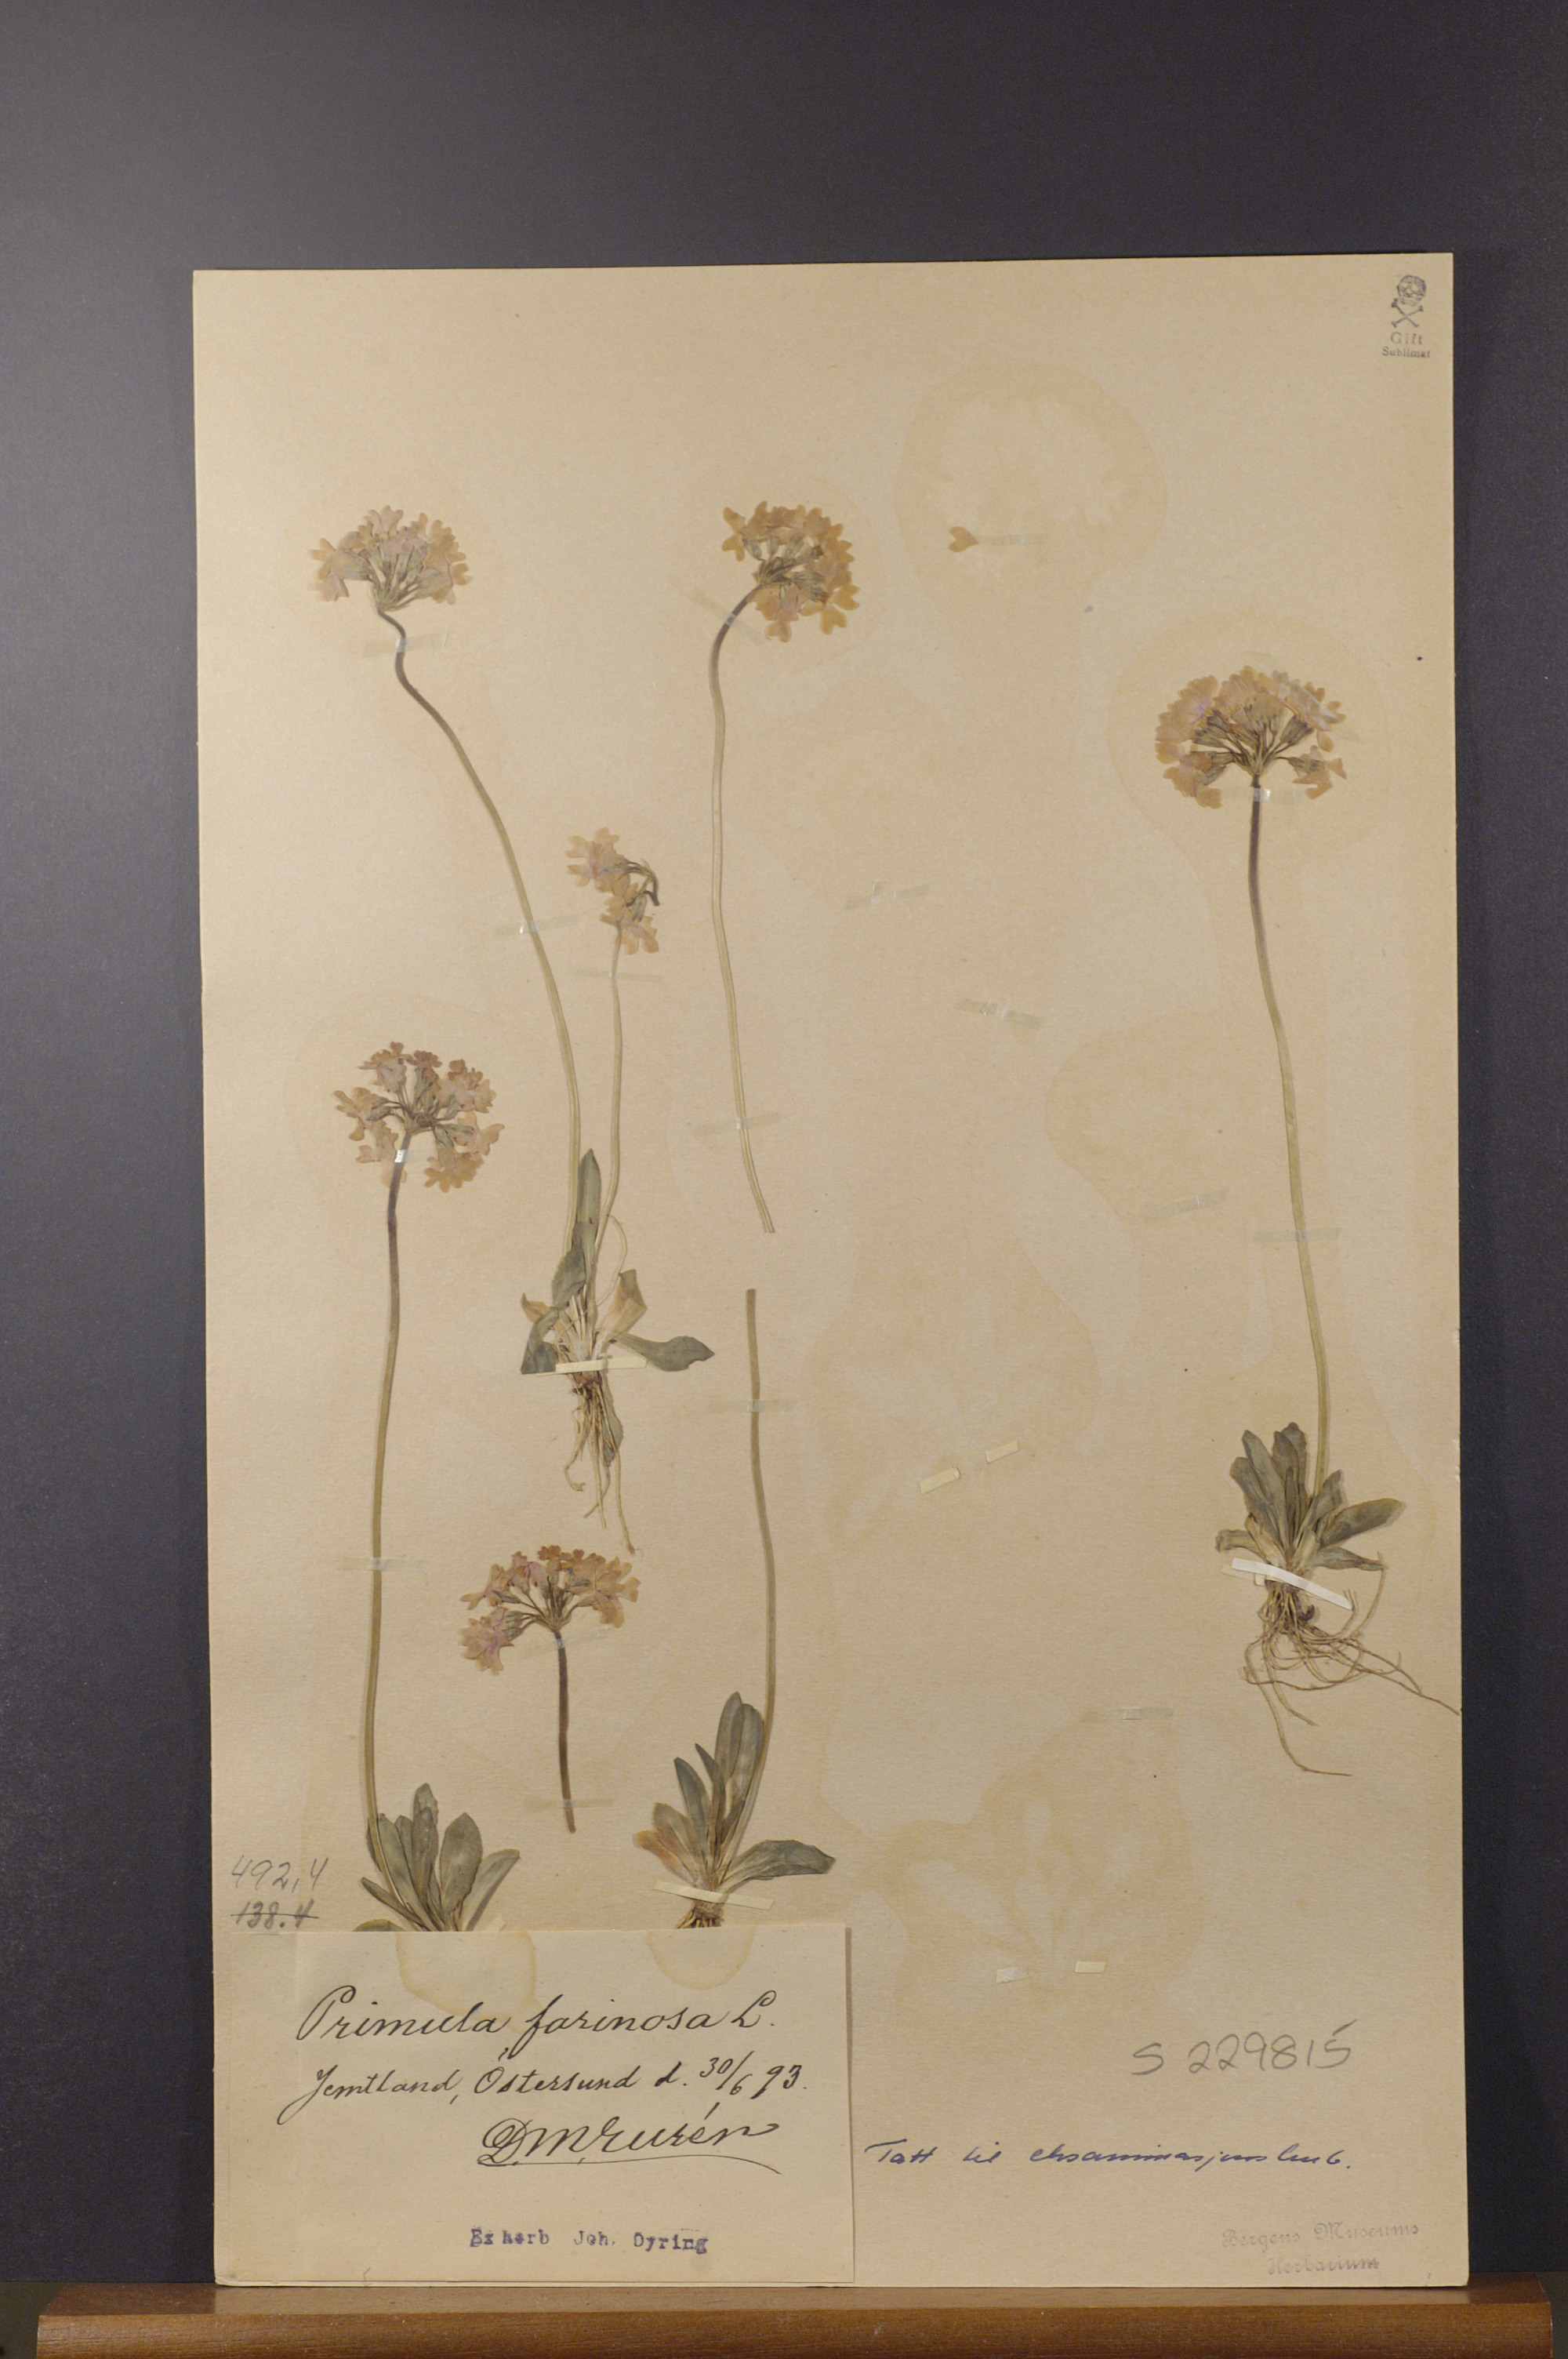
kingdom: Plantae
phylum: Tracheophyta
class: Magnoliopsida
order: Ericales
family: Primulaceae
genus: Primula
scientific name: Primula farinosa
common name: Bird's-eye primrose
